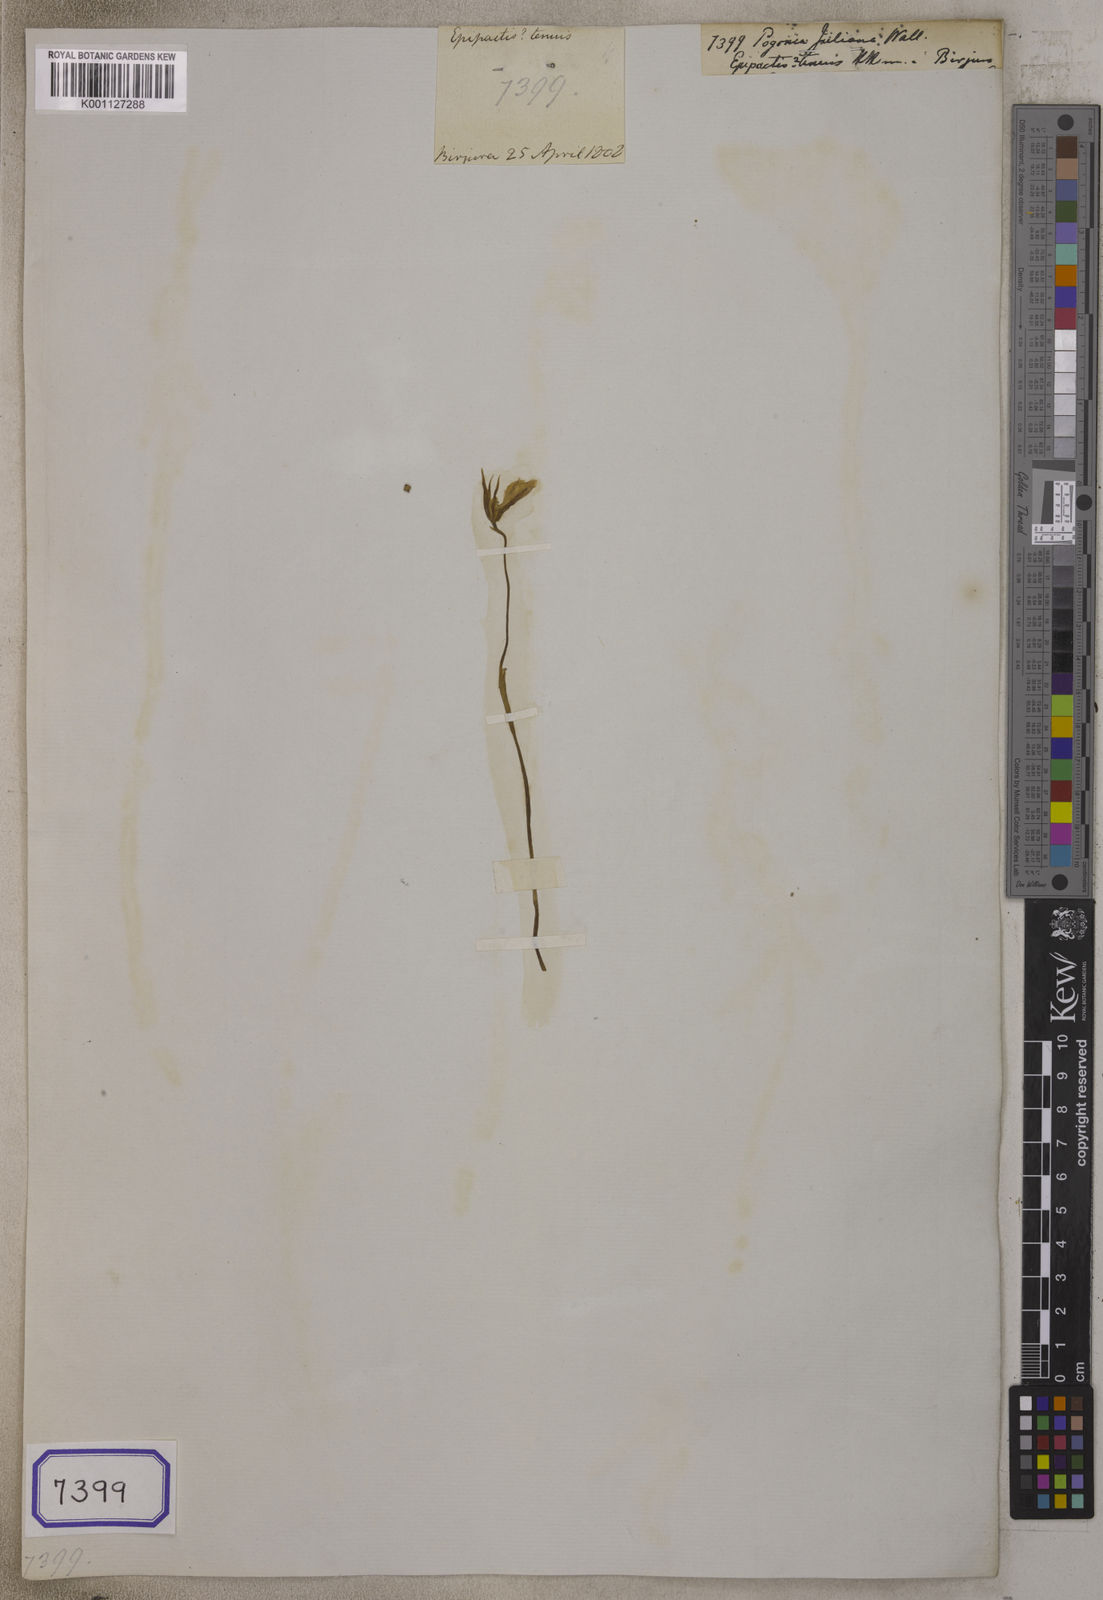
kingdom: Plantae
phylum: Tracheophyta
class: Liliopsida
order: Asparagales
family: Orchidaceae
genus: Pogonia
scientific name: Pogonia
